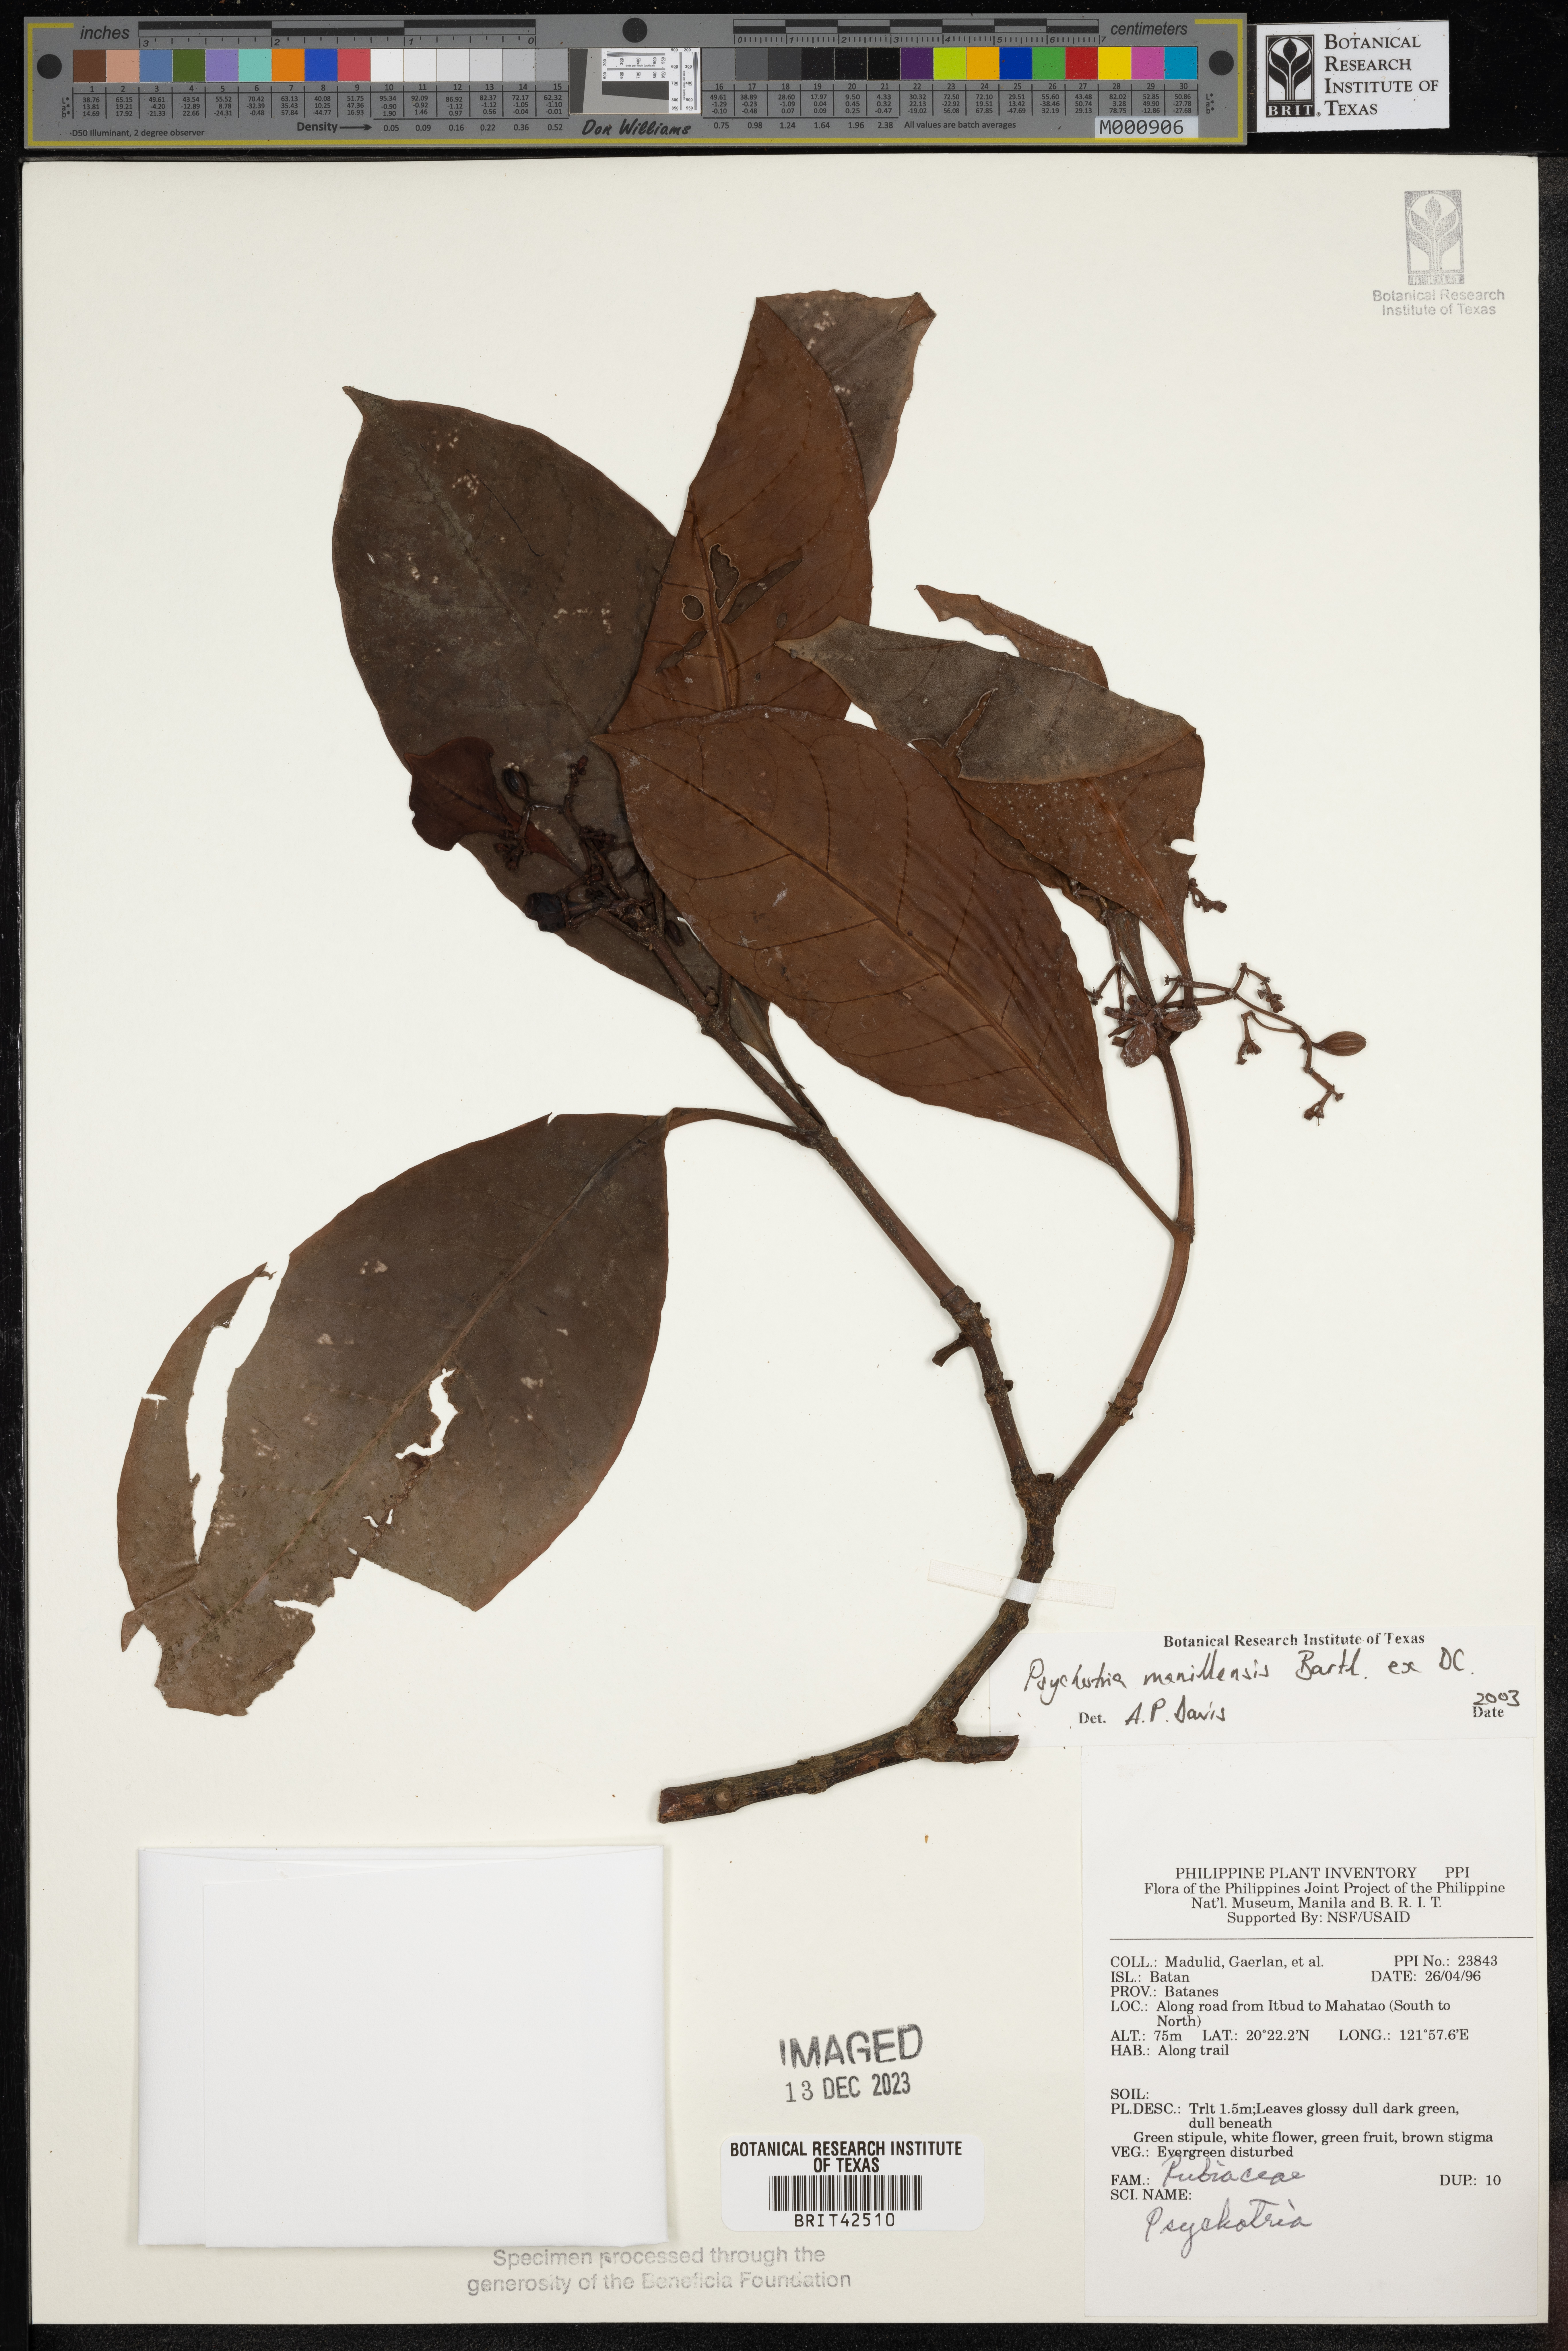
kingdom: Plantae
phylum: Tracheophyta
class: Magnoliopsida
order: Gentianales
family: Rubiaceae
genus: Psychotria
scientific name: Psychotria manillensis
